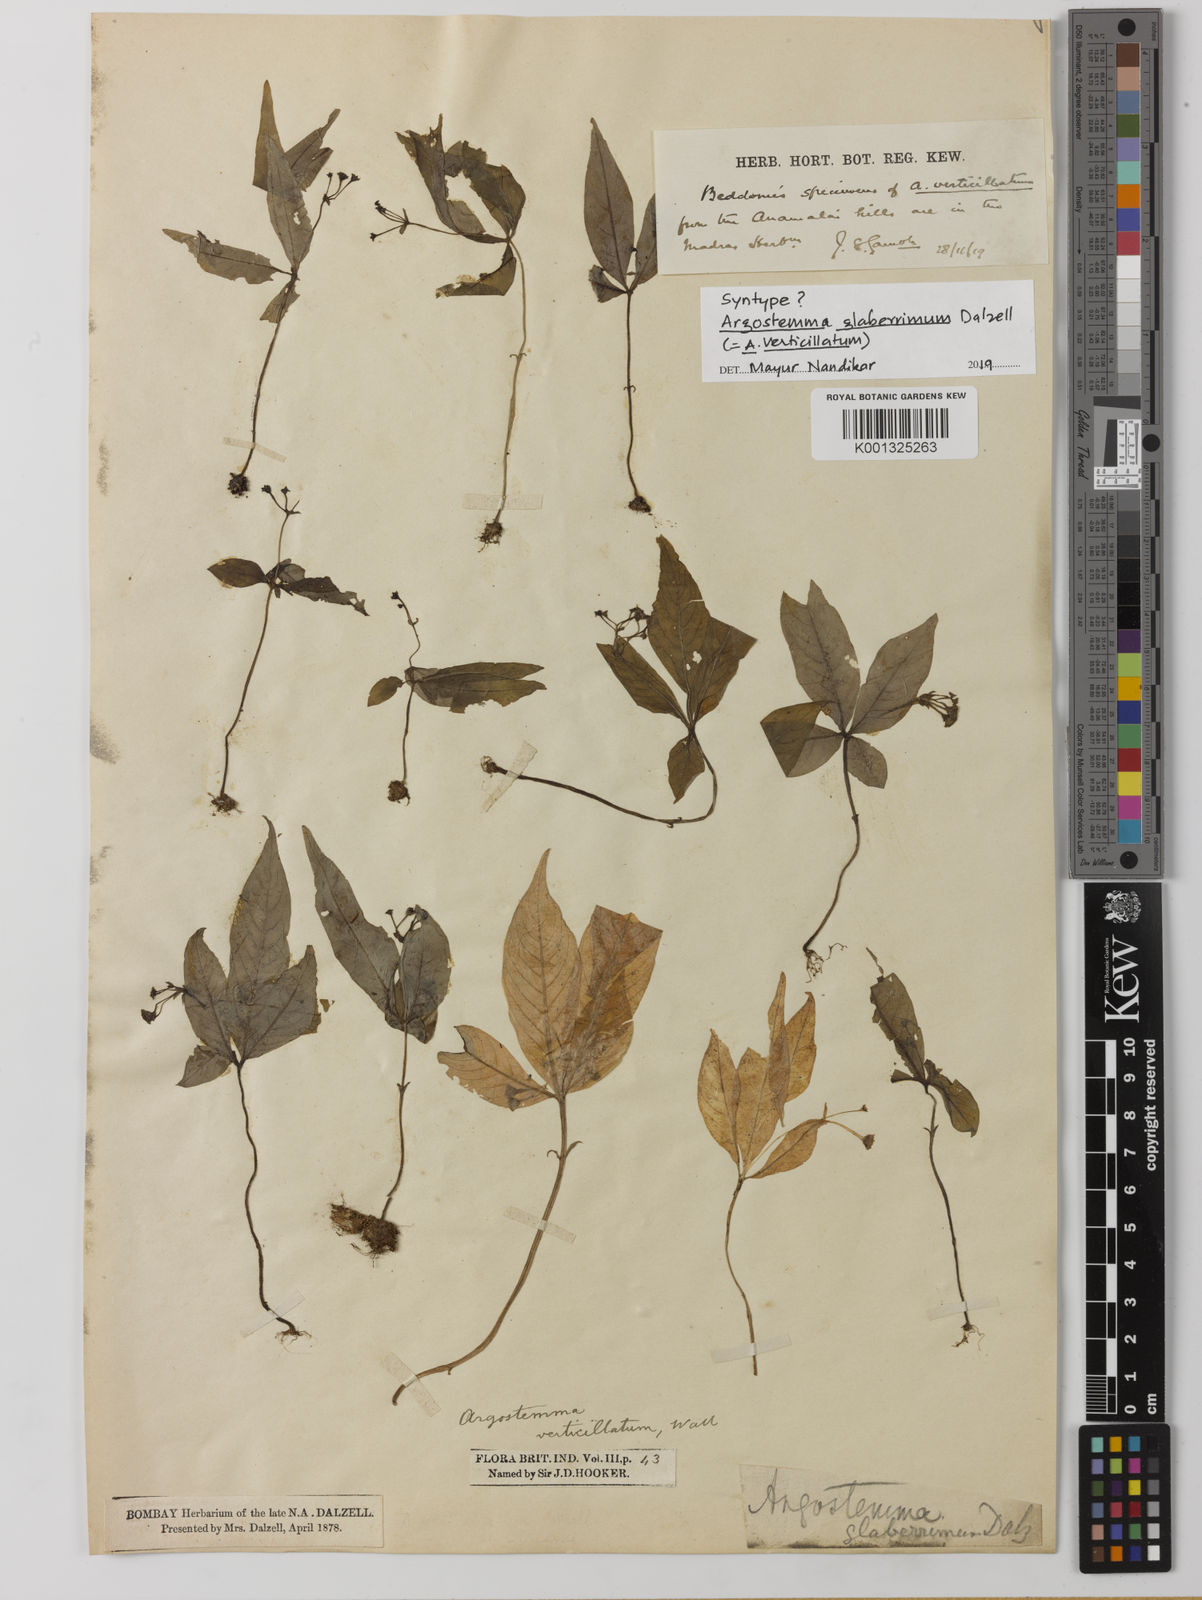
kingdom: Plantae
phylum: Tracheophyta
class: Magnoliopsida
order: Gentianales
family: Rubiaceae
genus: Argostemma
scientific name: Argostemma verticillatum
